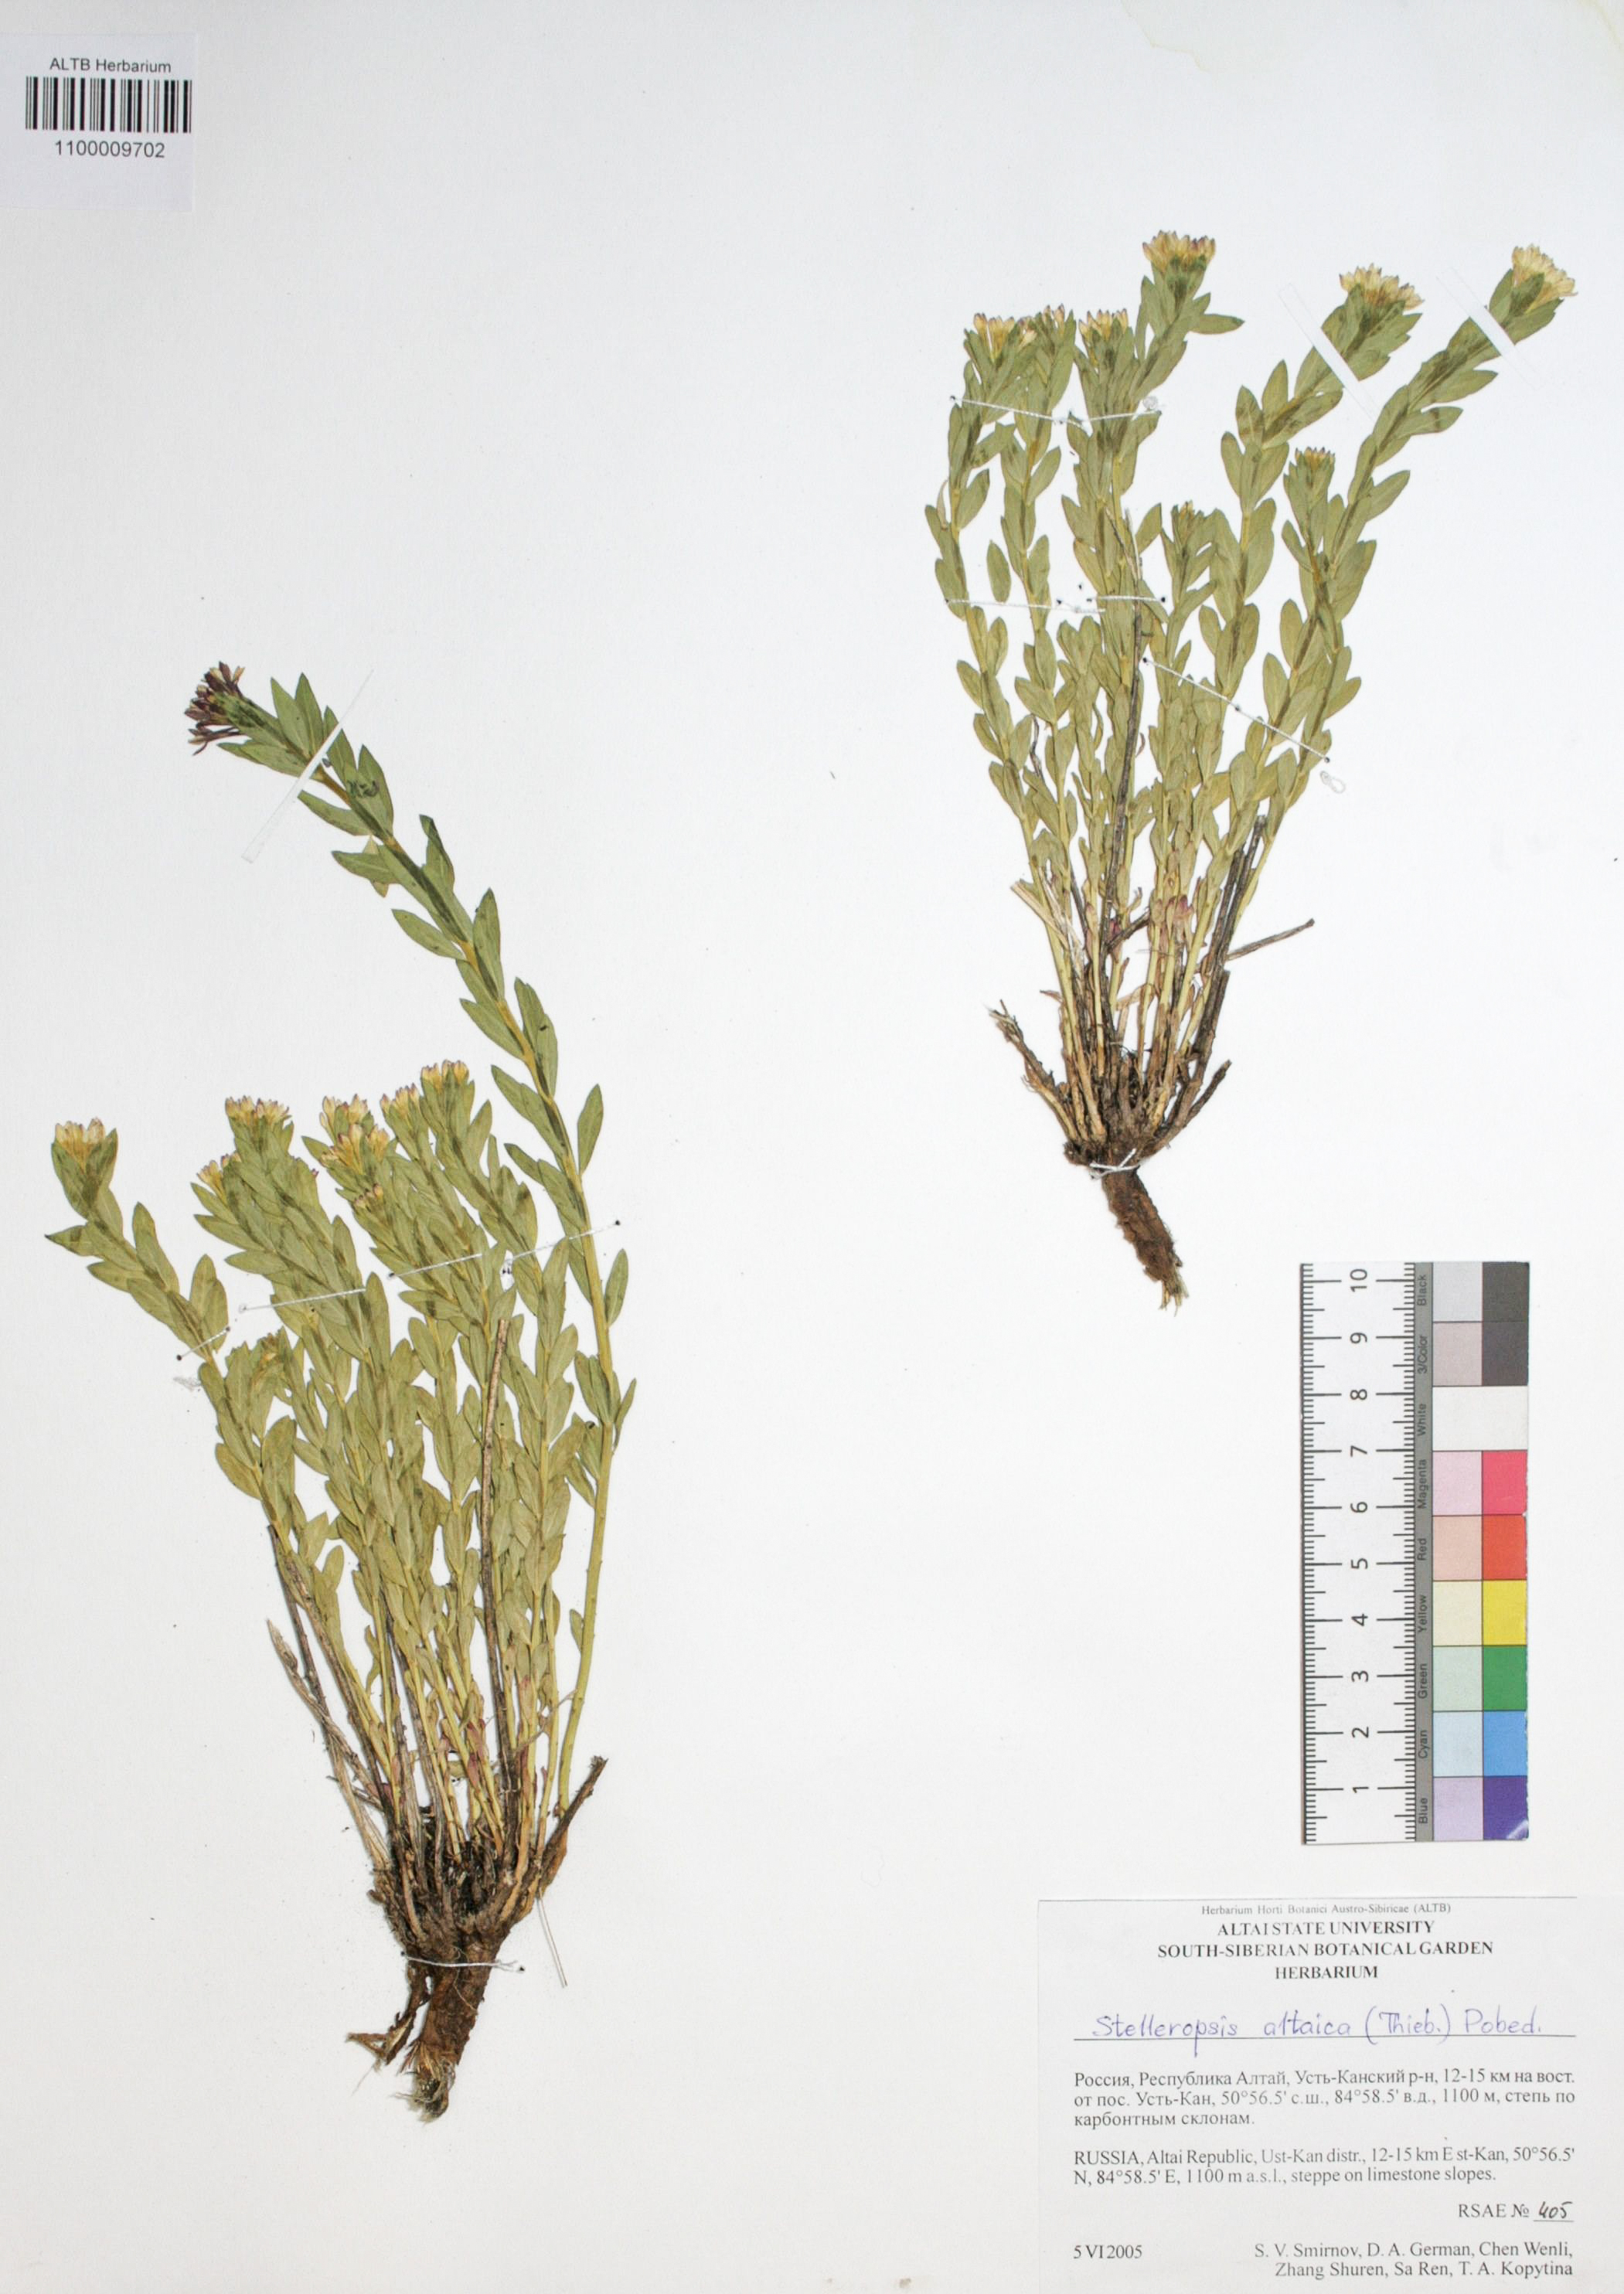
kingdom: Plantae
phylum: Tracheophyta
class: Magnoliopsida
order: Malvales
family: Thymelaeaceae
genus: Diarthron
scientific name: Diarthron altaicum
